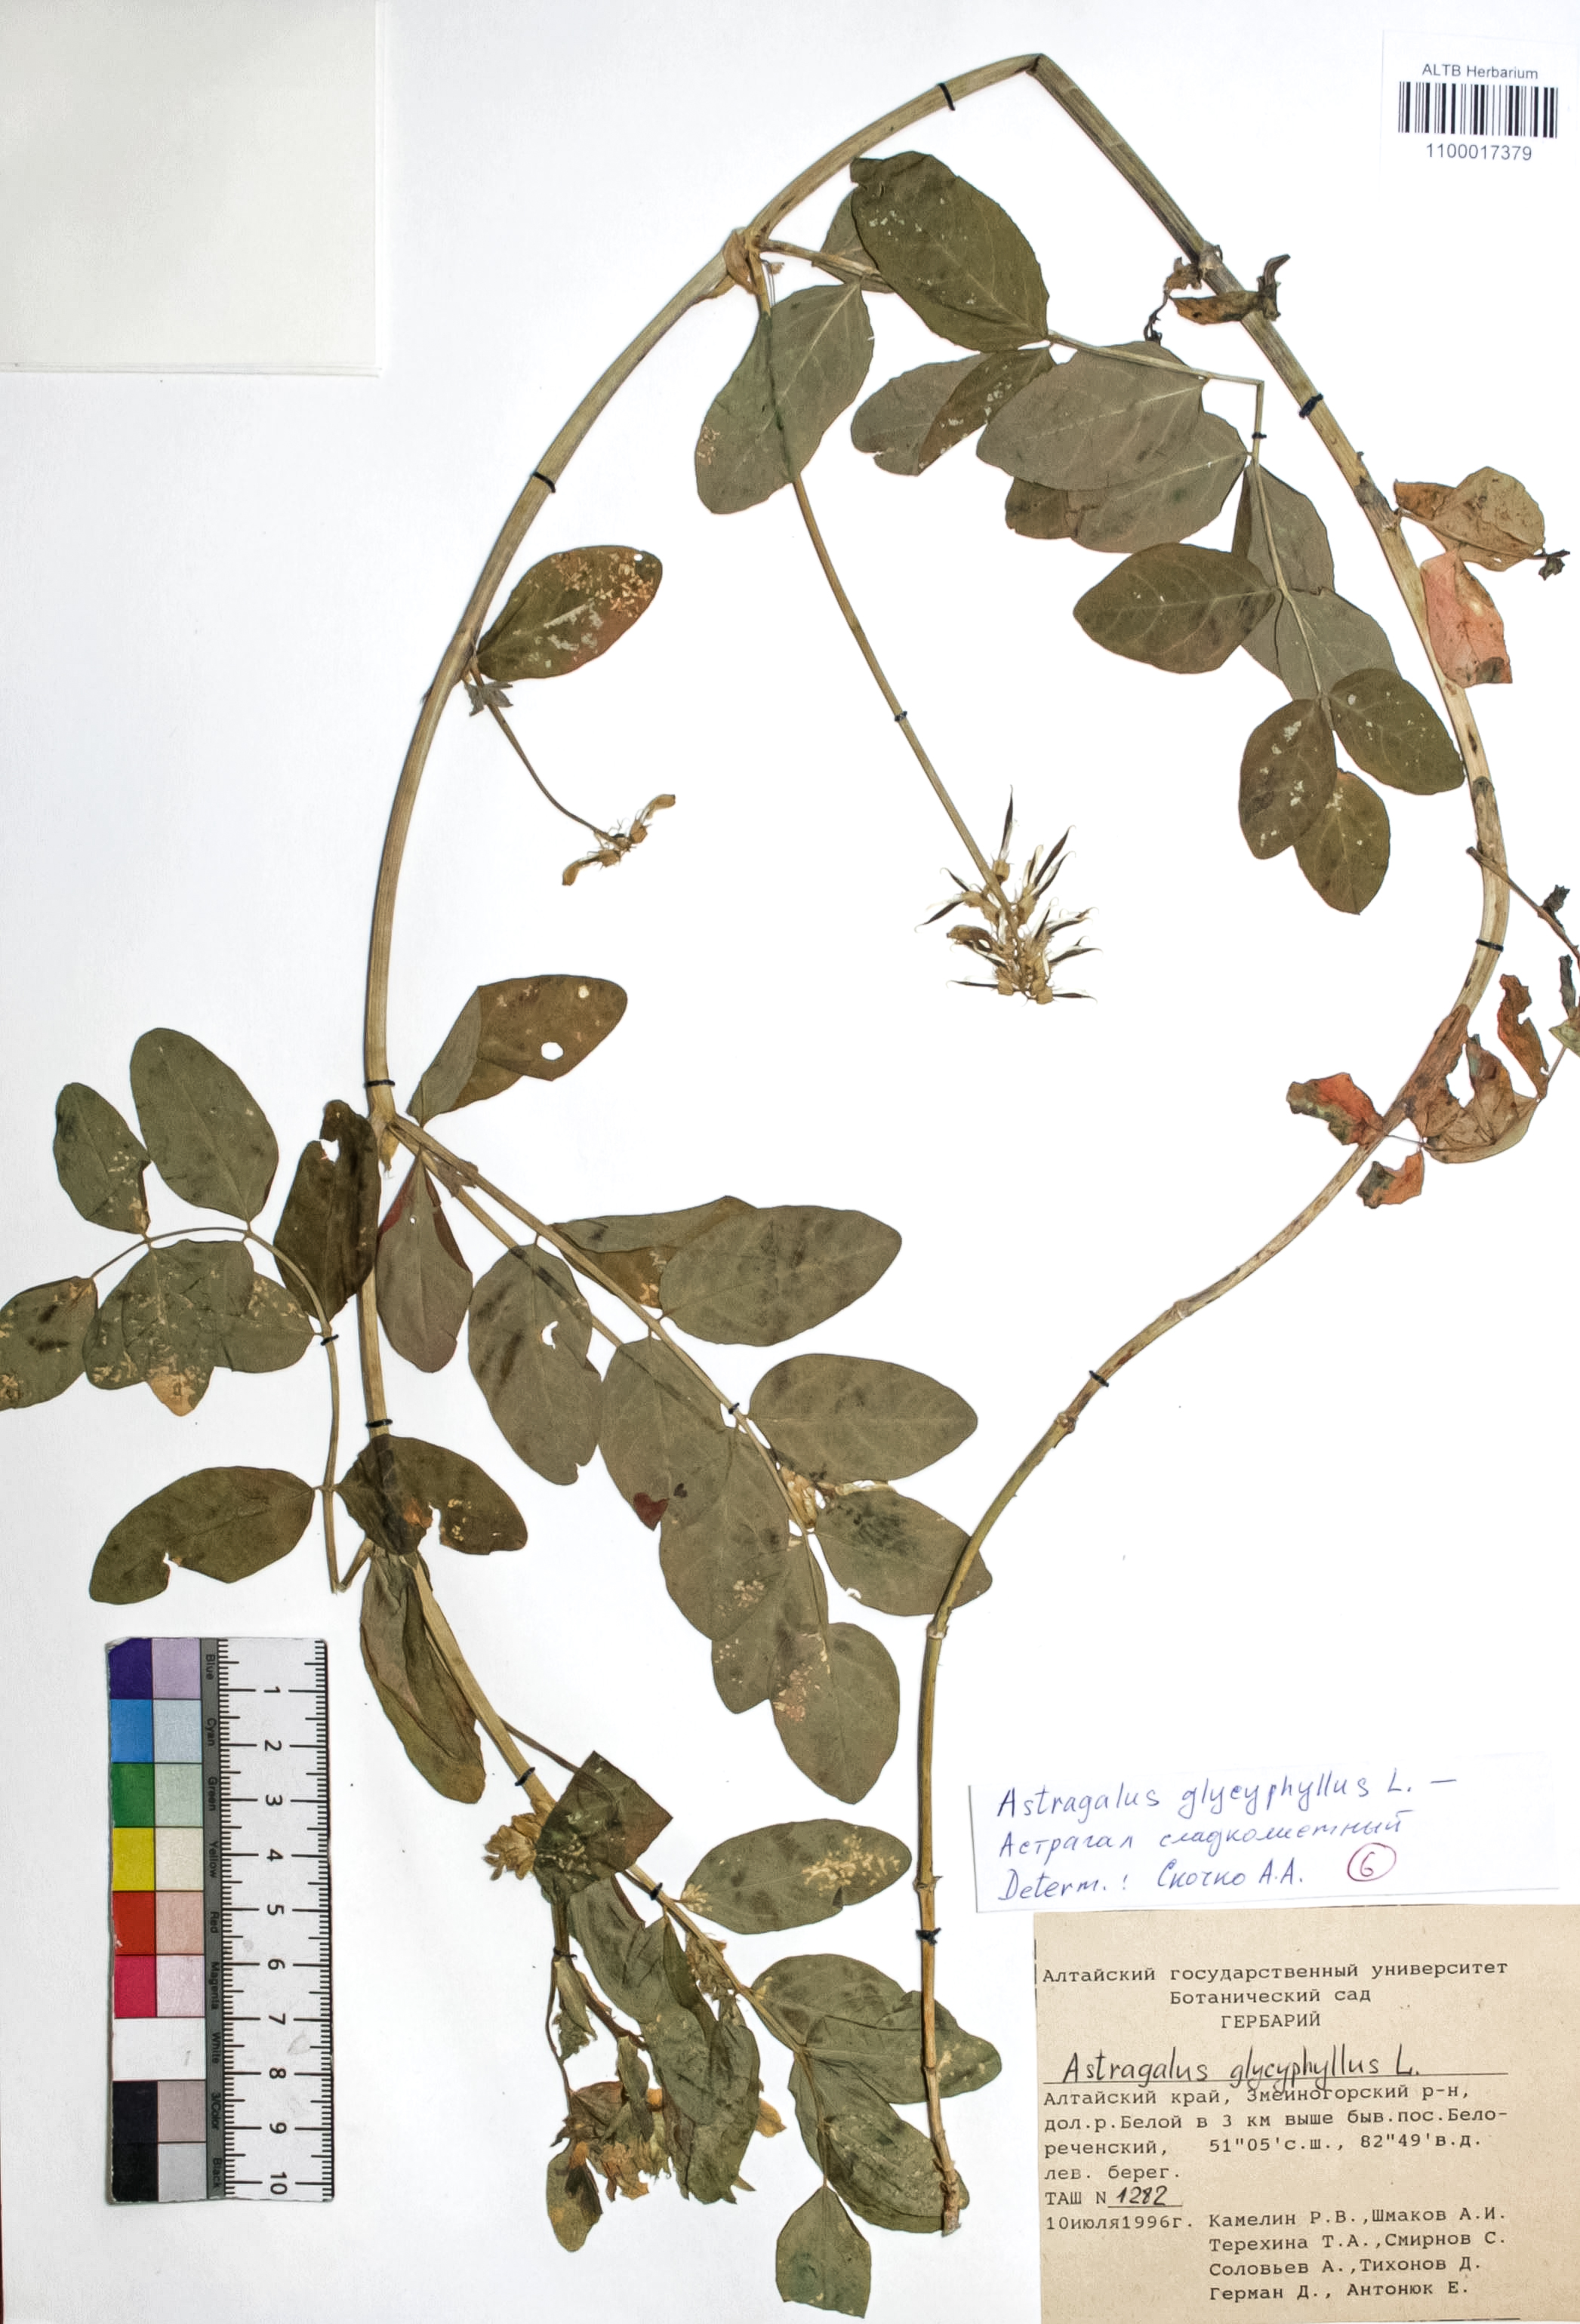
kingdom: Plantae
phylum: Tracheophyta
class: Magnoliopsida
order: Fabales
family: Fabaceae
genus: Astragalus
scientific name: Astragalus glycyphyllos
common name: Wild liquorice
